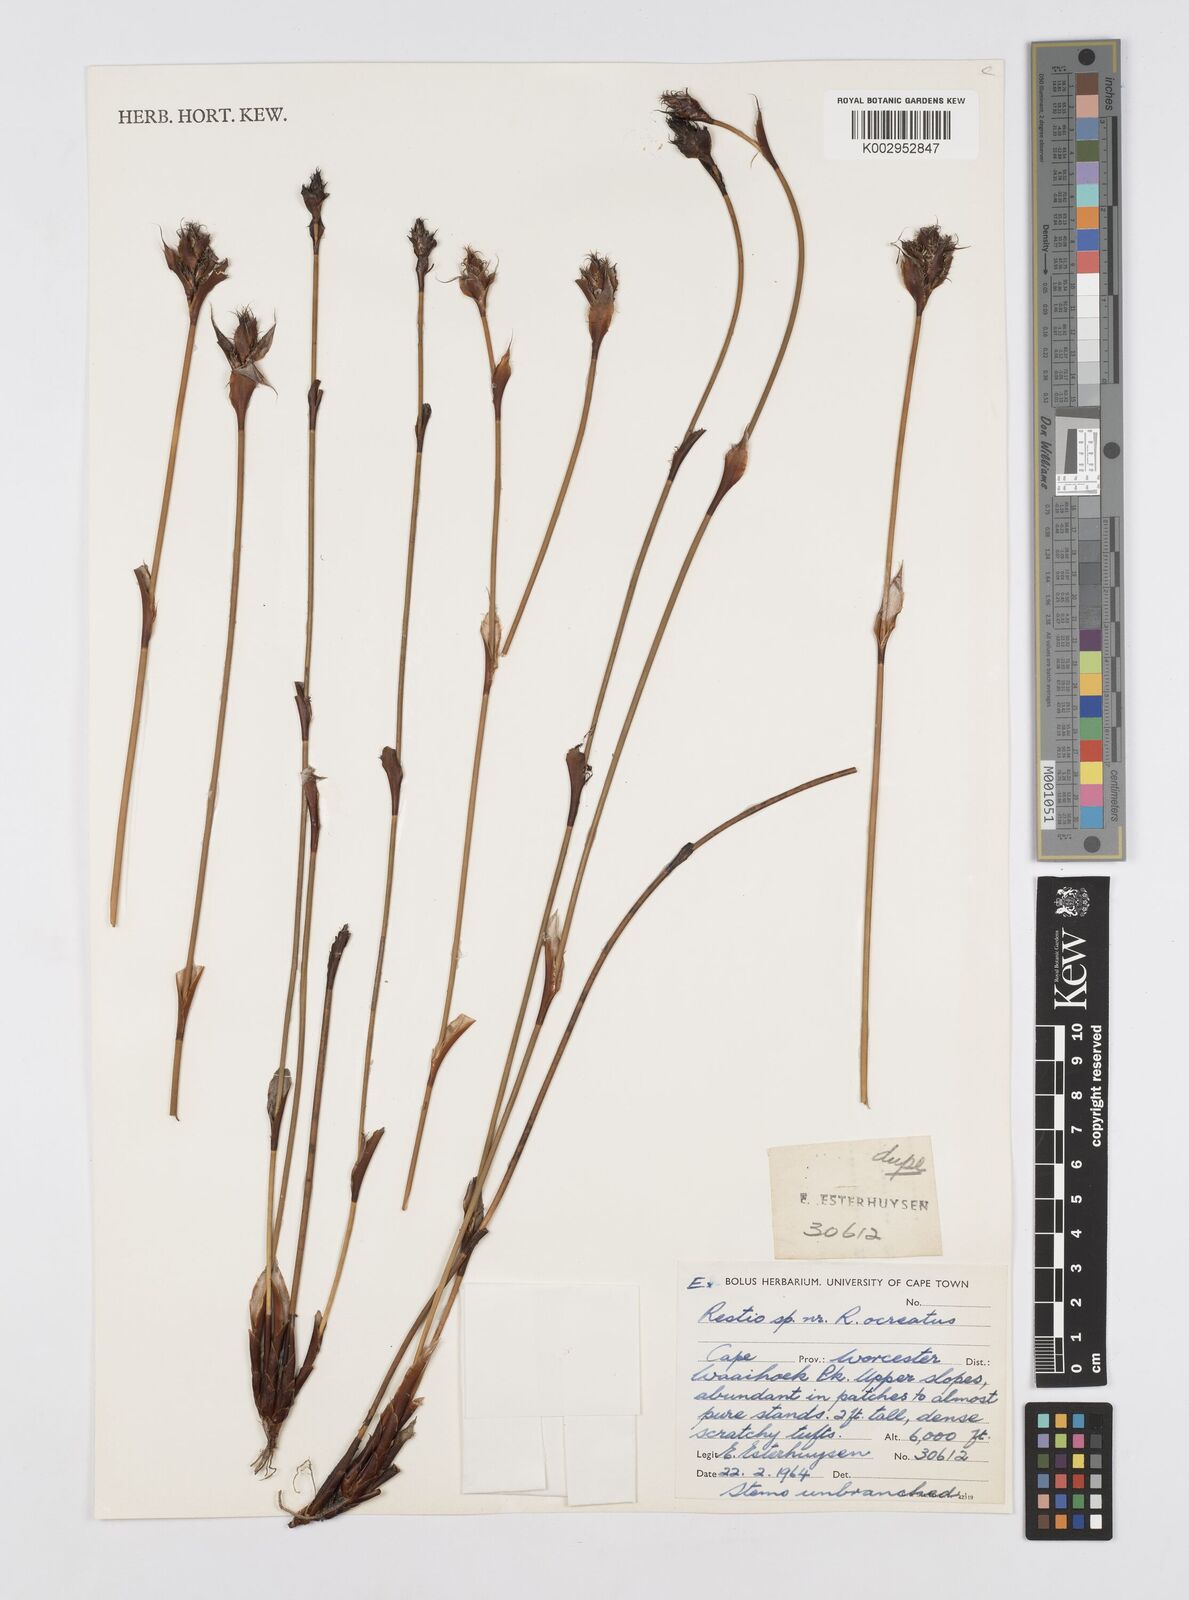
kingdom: Plantae
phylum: Tracheophyta
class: Liliopsida
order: Poales
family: Restionaceae
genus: Restio
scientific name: Restio ocreatus
